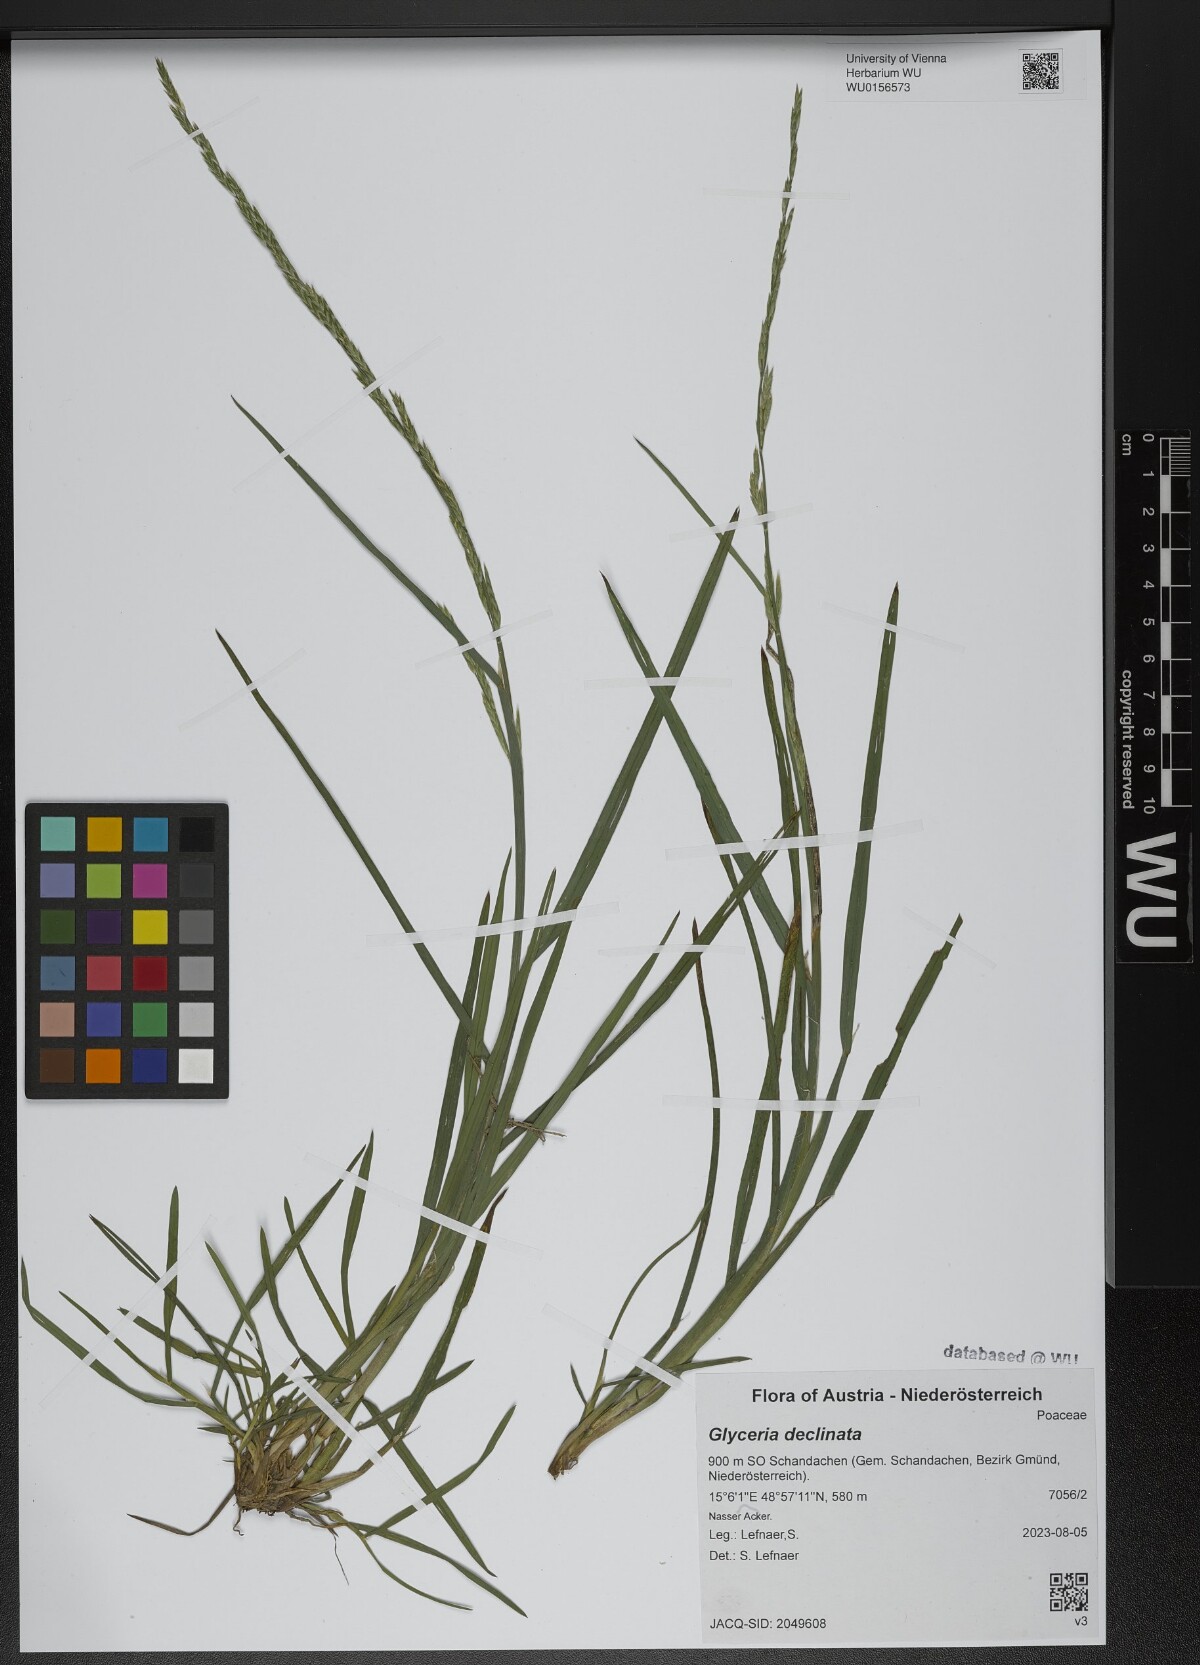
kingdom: Plantae
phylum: Tracheophyta
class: Liliopsida
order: Poales
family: Poaceae
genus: Glyceria
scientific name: Glyceria declinata
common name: Small sweet-grass
